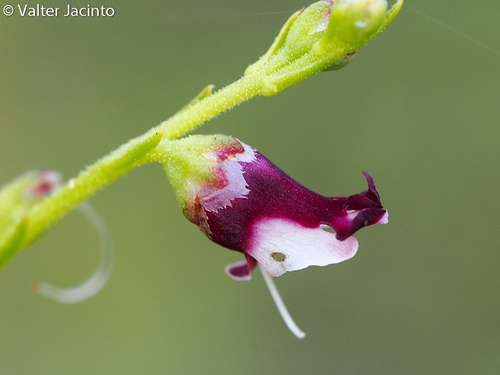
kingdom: Plantae
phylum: Tracheophyta
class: Magnoliopsida
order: Lamiales
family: Scrophulariaceae
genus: Scrophularia
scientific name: Scrophularia canina
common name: French figwort
